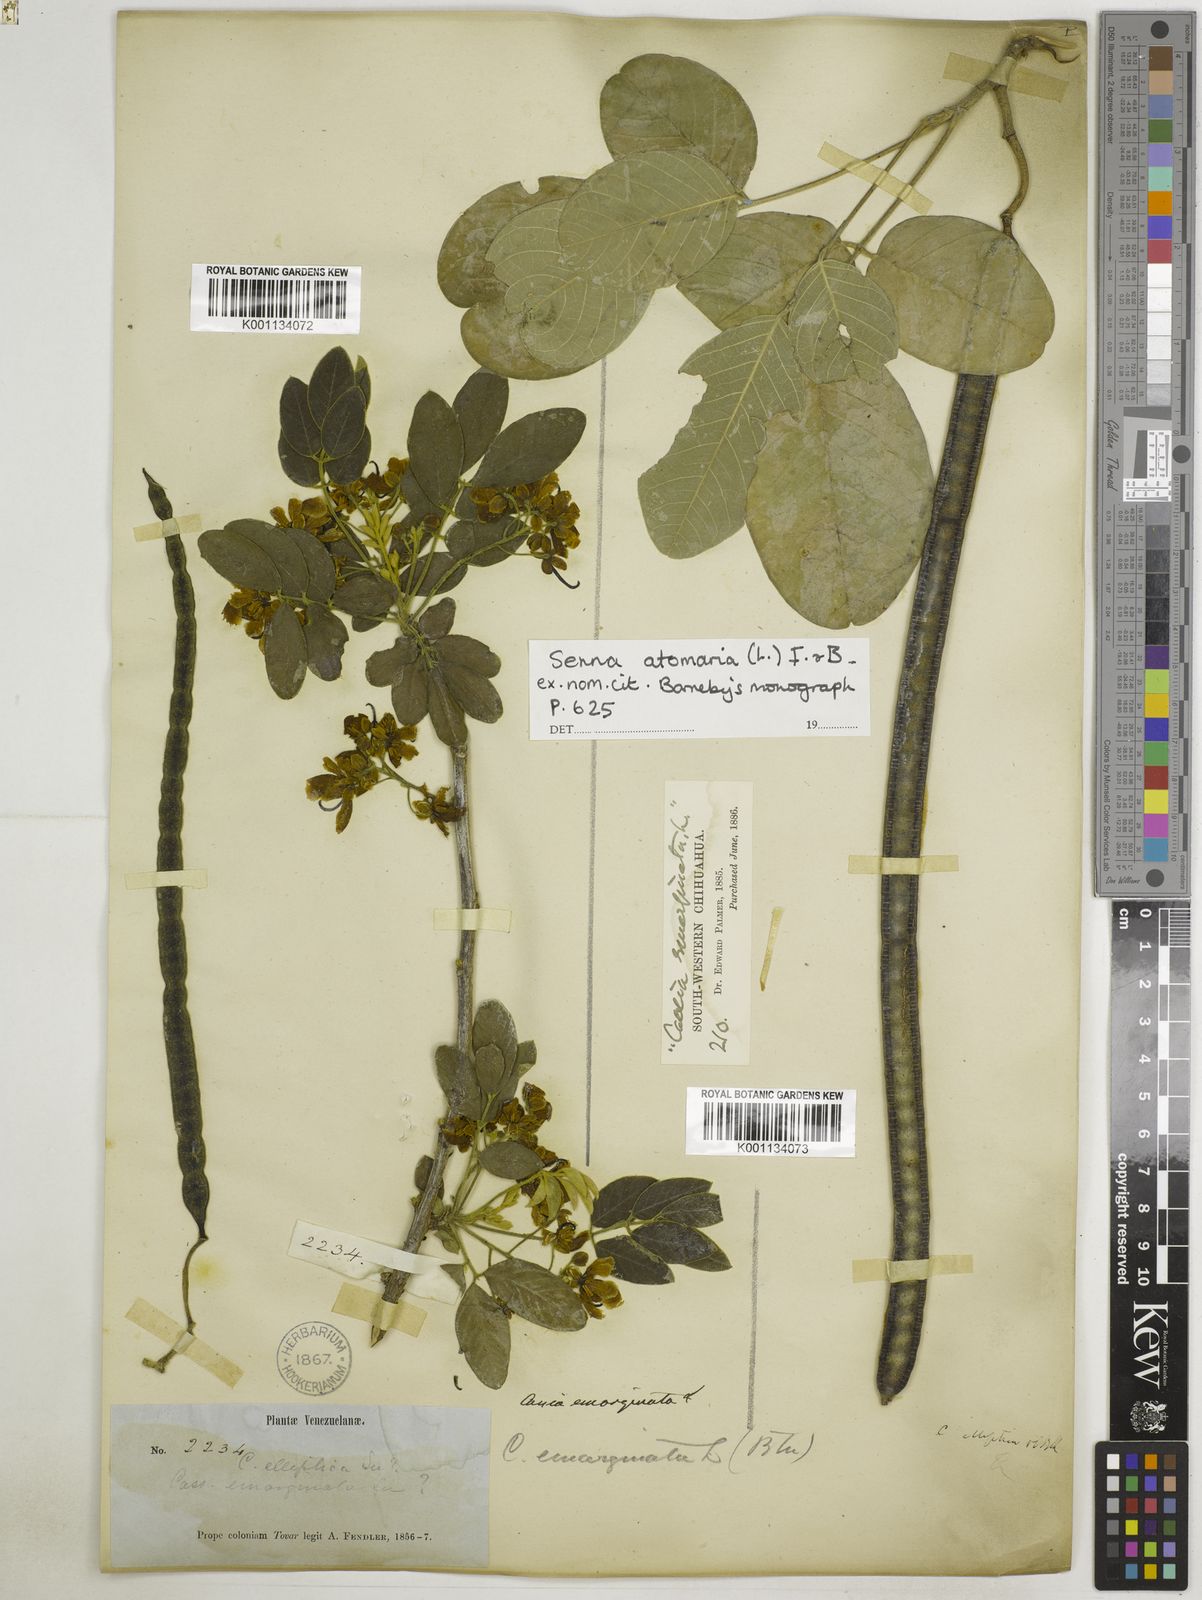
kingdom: Plantae
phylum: Tracheophyta
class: Magnoliopsida
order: Fabales
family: Fabaceae
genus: Senna
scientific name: Senna atomaria
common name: Flor de san jose
